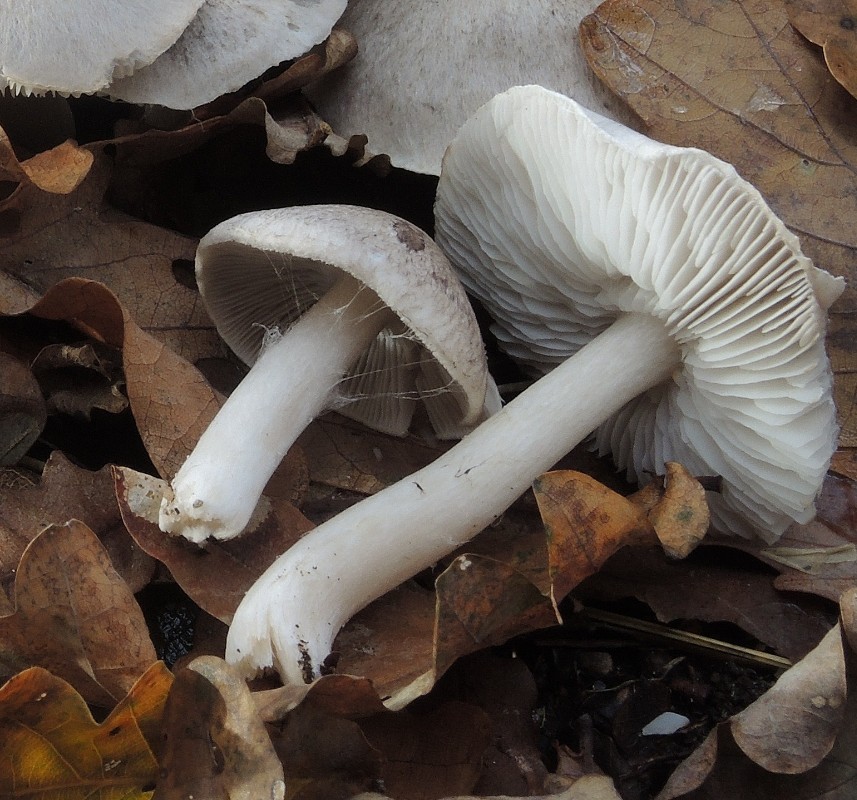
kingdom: Fungi
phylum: Basidiomycota
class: Agaricomycetes
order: Agaricales
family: Tricholomataceae
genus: Tricholoma
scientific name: Tricholoma argyraceum
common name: slør-ridderhat
